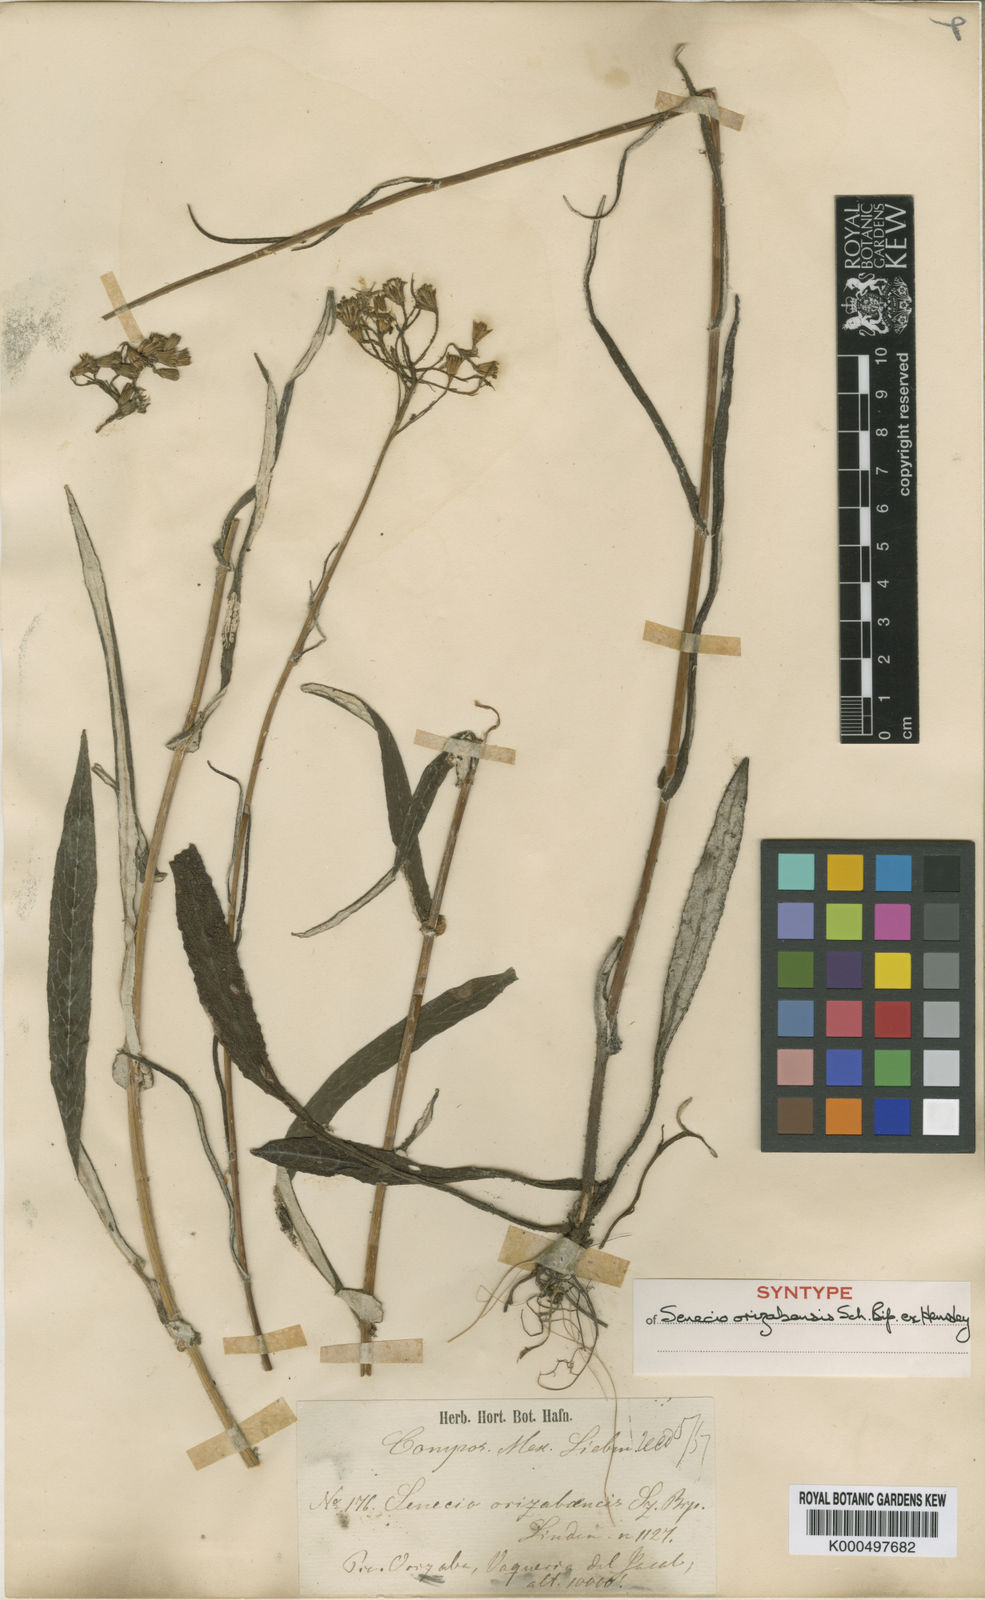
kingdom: Plantae
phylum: Tracheophyta
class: Magnoliopsida
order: Asterales
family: Asteraceae
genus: Senecio
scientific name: Senecio orizabensis
